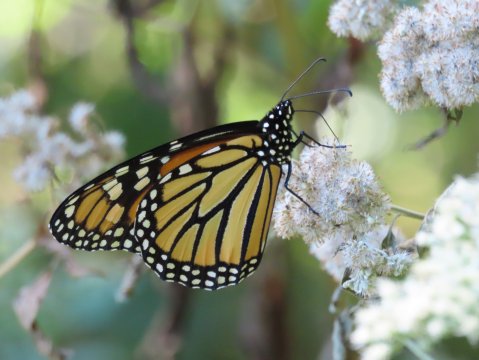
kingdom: Animalia
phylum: Arthropoda
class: Insecta
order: Lepidoptera
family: Nymphalidae
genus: Danaus
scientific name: Danaus plexippus
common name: Monarch
